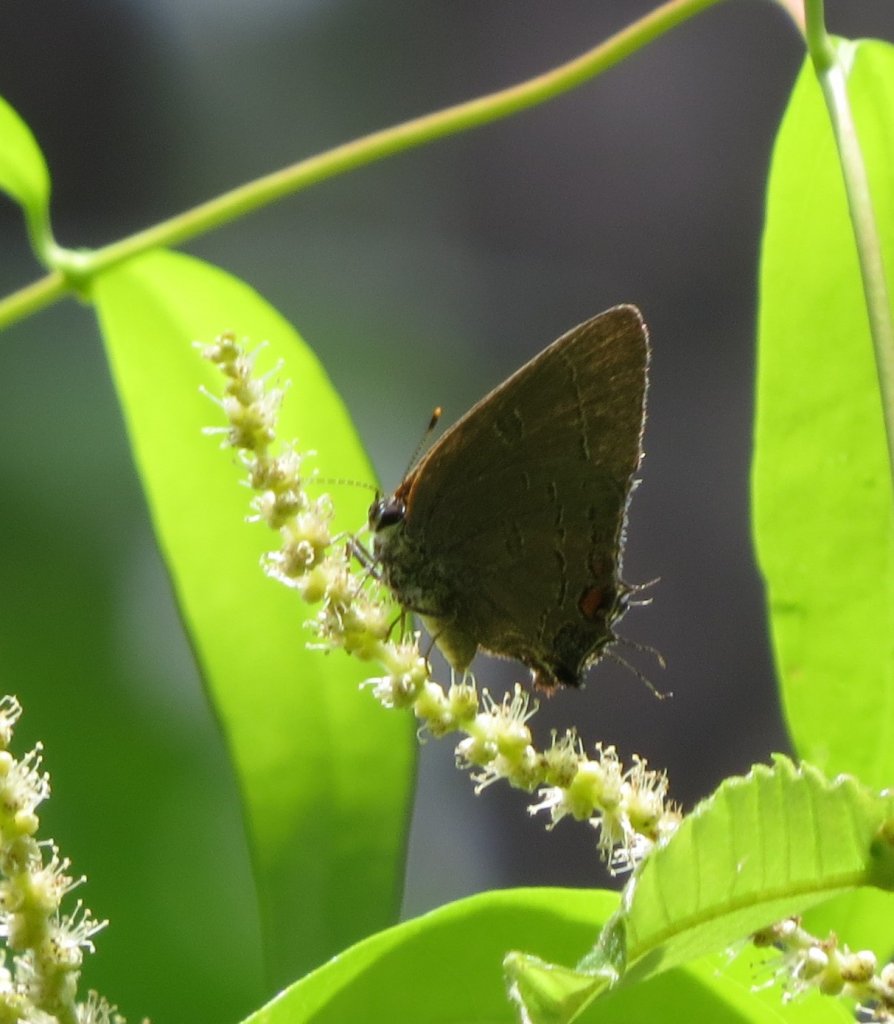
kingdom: Animalia
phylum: Arthropoda
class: Insecta
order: Lepidoptera
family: Lycaenidae
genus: Satyrium
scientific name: Satyrium calanus
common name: Banded Hairstreak
